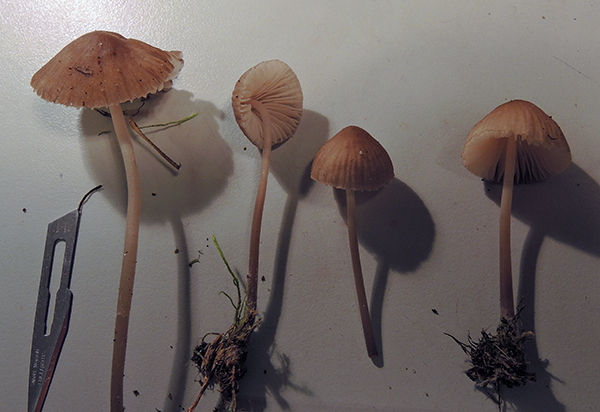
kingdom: Fungi
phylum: Basidiomycota
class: Agaricomycetes
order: Agaricales
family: Mycenaceae
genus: Mycena
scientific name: Mycena abramsii
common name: sommer-huesvamp
